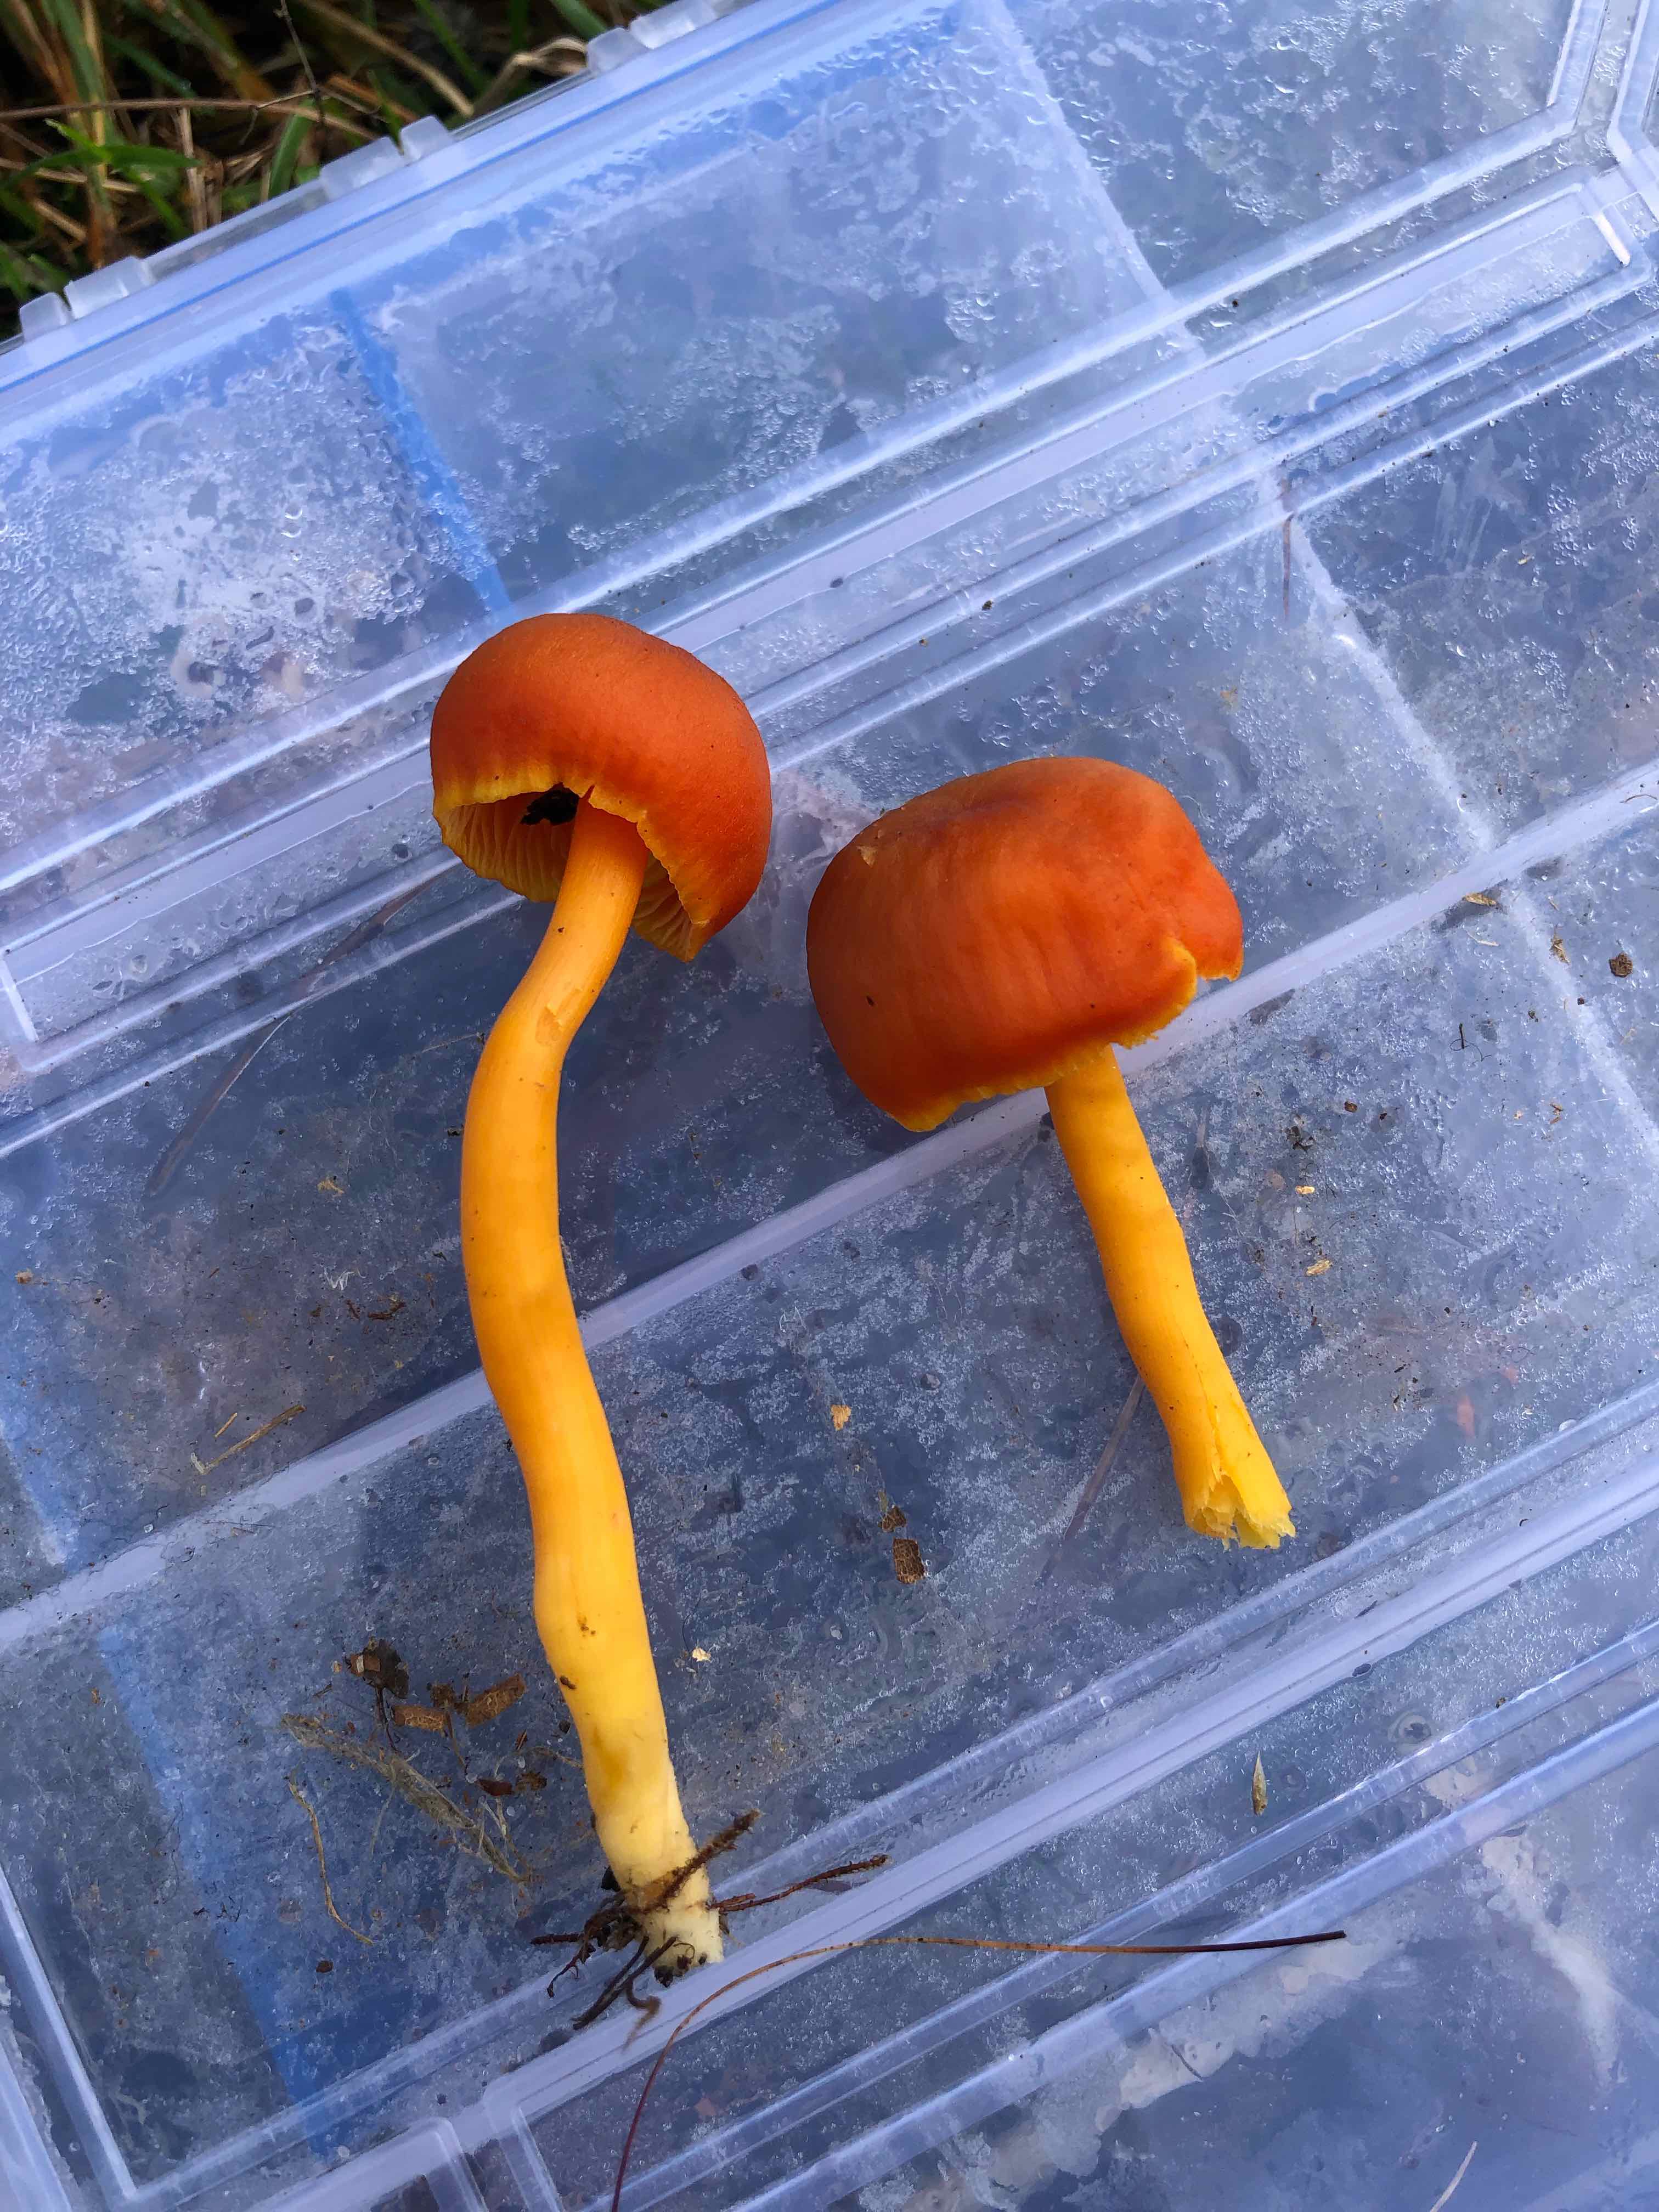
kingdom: Fungi
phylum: Basidiomycota
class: Agaricomycetes
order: Agaricales
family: Hygrophoraceae
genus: Hygrocybe
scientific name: Hygrocybe
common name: vokshat
